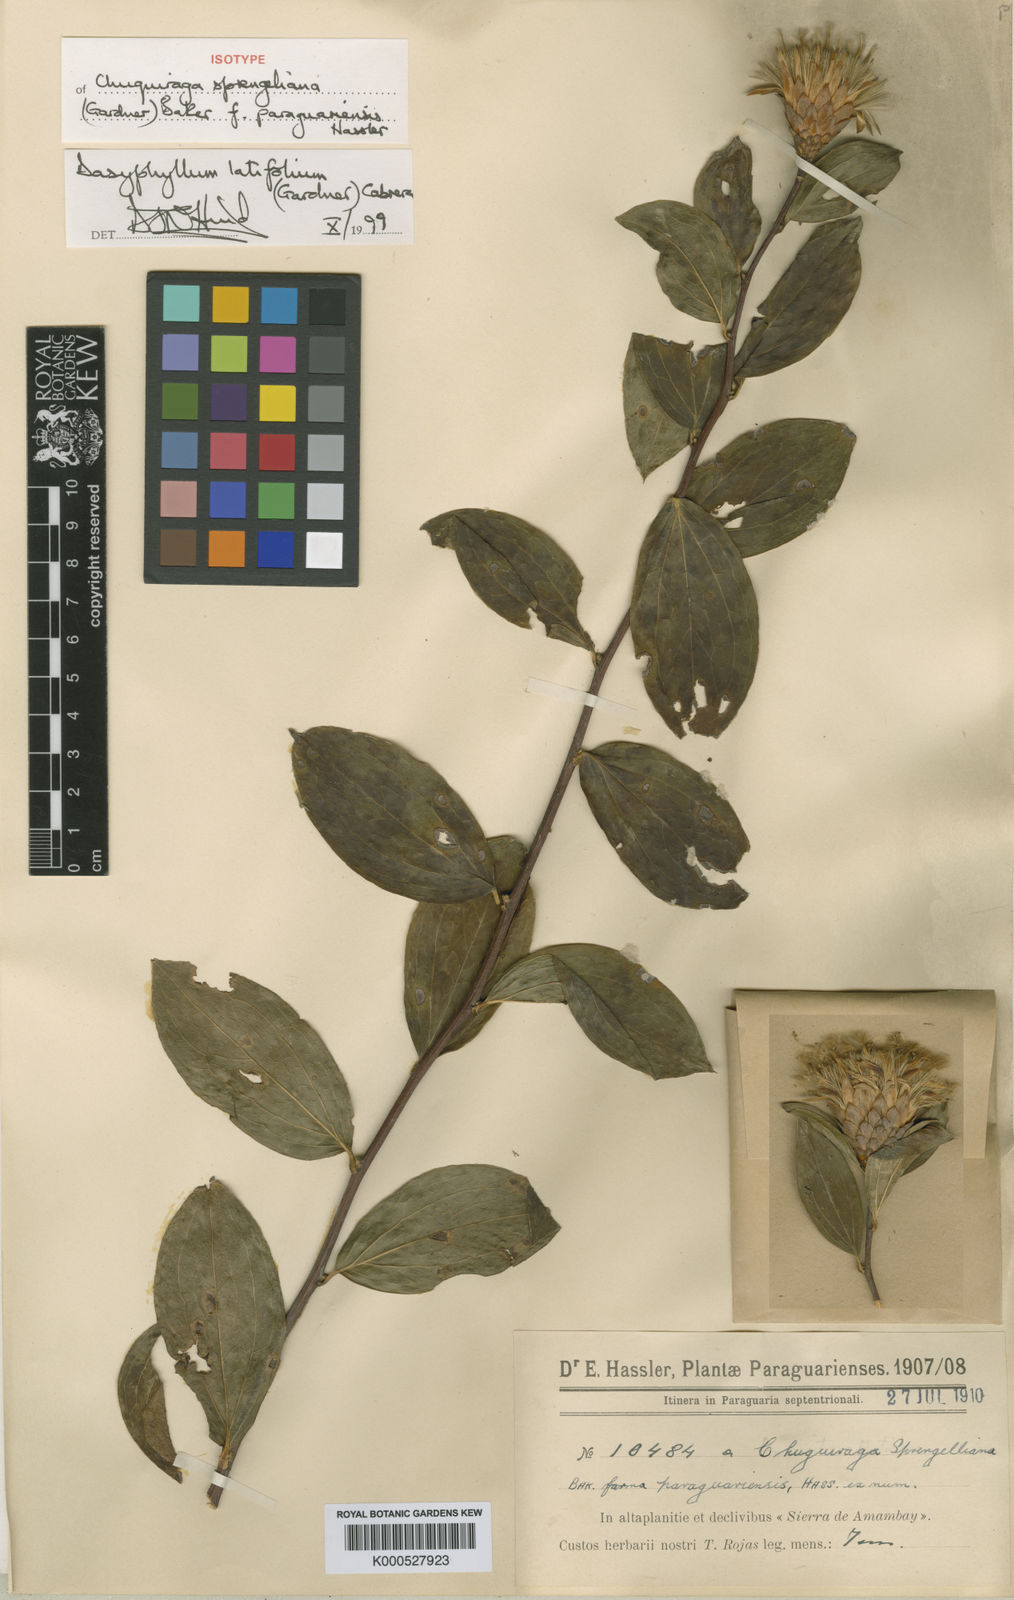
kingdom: Plantae
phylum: Tracheophyta
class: Magnoliopsida
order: Asterales
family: Asteraceae
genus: Dasyphyllum
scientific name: Dasyphyllum latifolium
